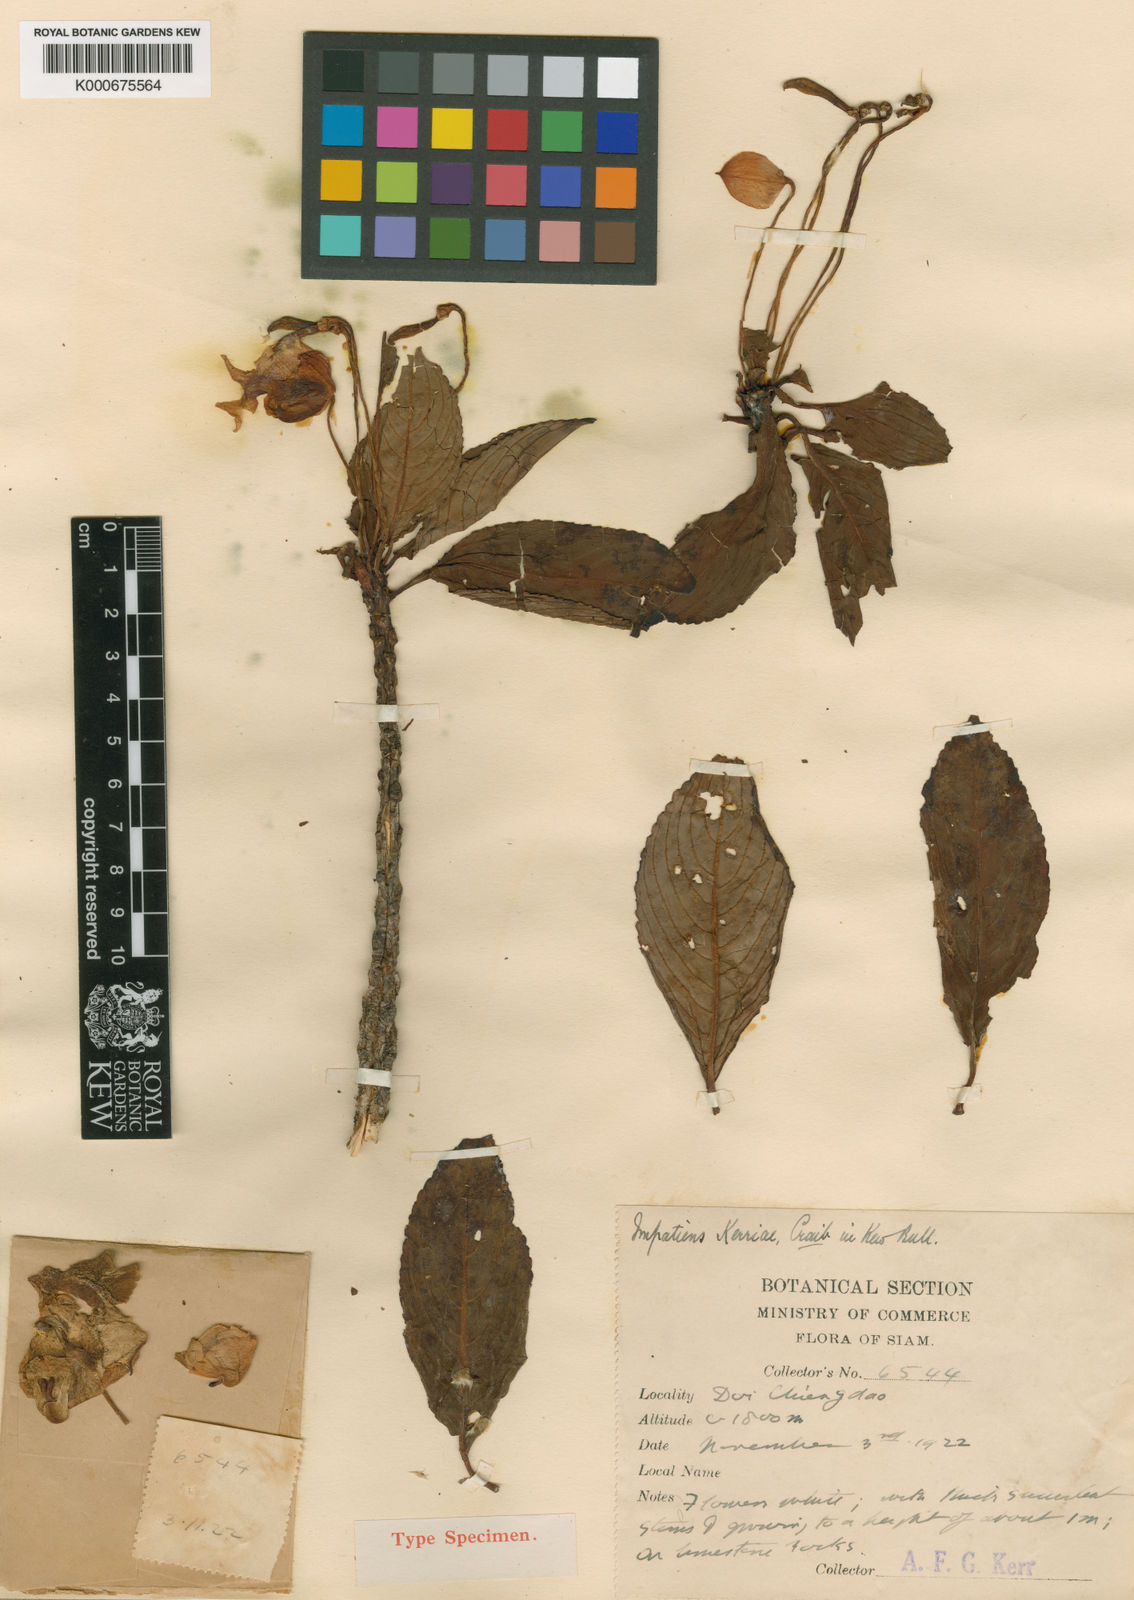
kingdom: Plantae
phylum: Tracheophyta
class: Magnoliopsida
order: Ericales
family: Balsaminaceae
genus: Impatiens
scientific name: Impatiens kerriae
